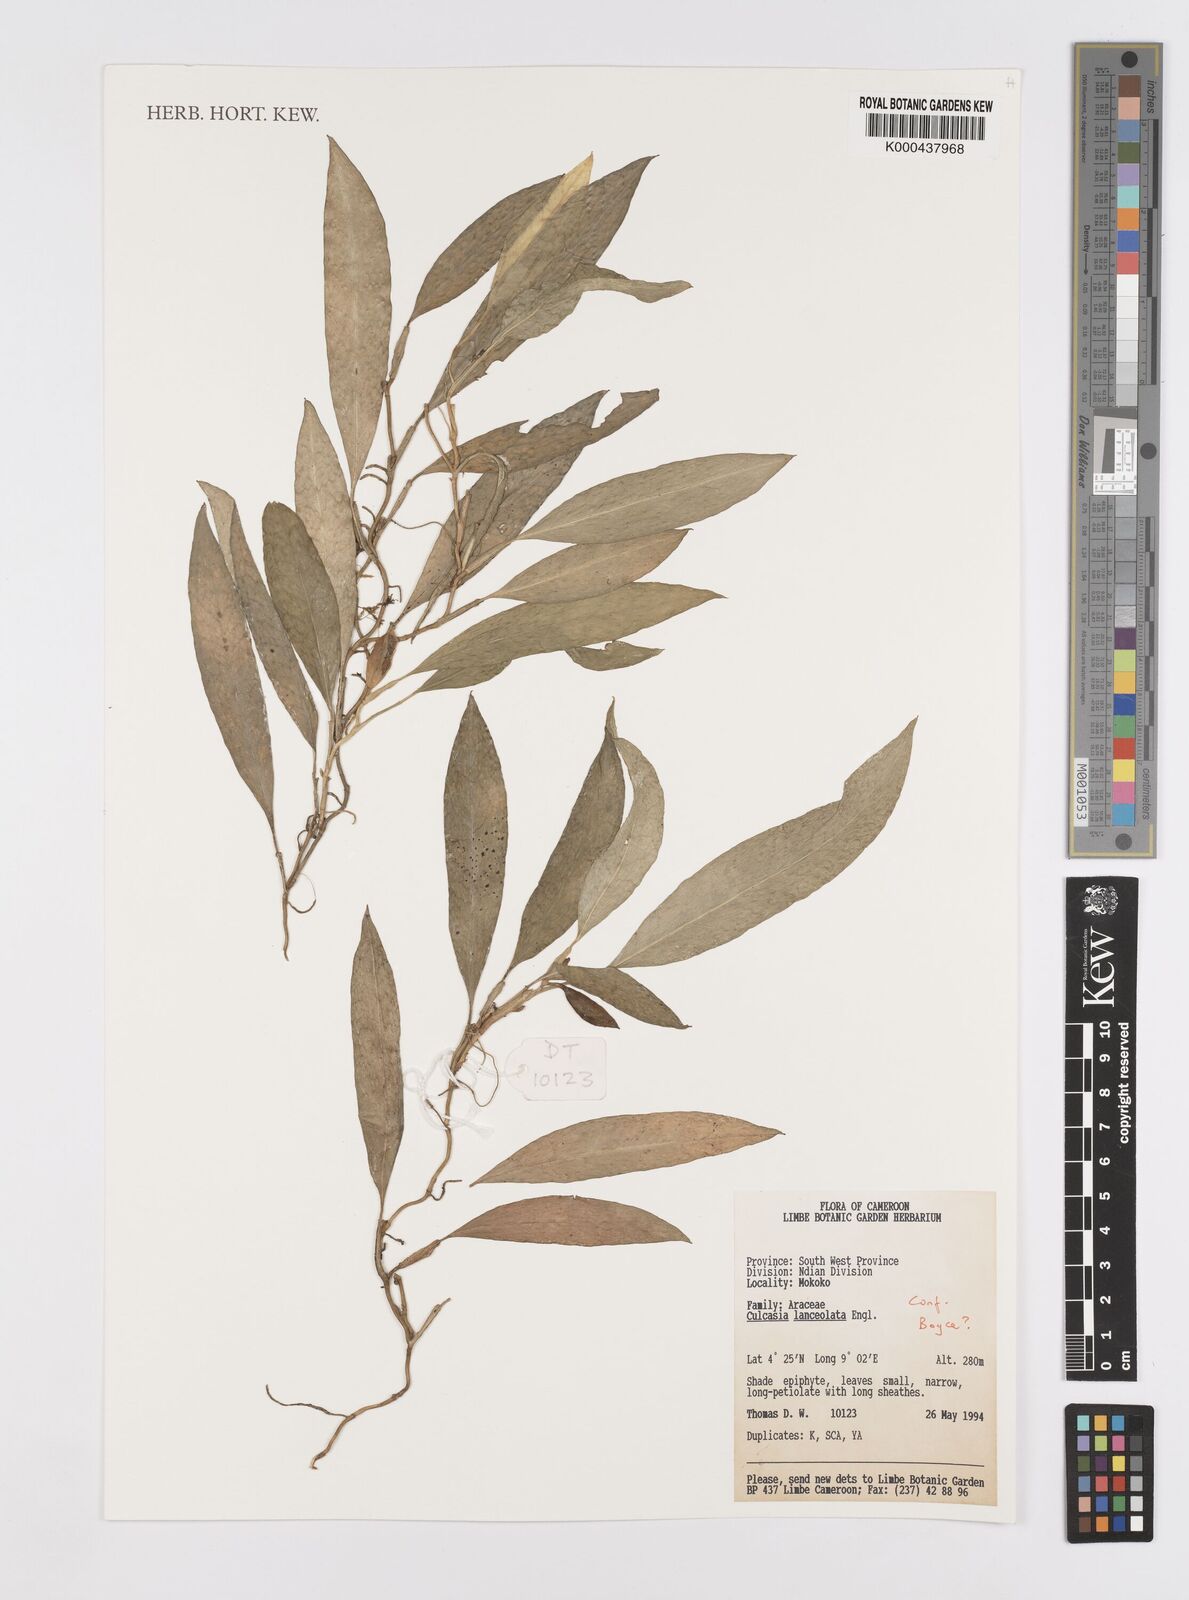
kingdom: Plantae
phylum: Tracheophyta
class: Liliopsida
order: Alismatales
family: Araceae
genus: Culcasia
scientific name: Culcasia lanceolata
